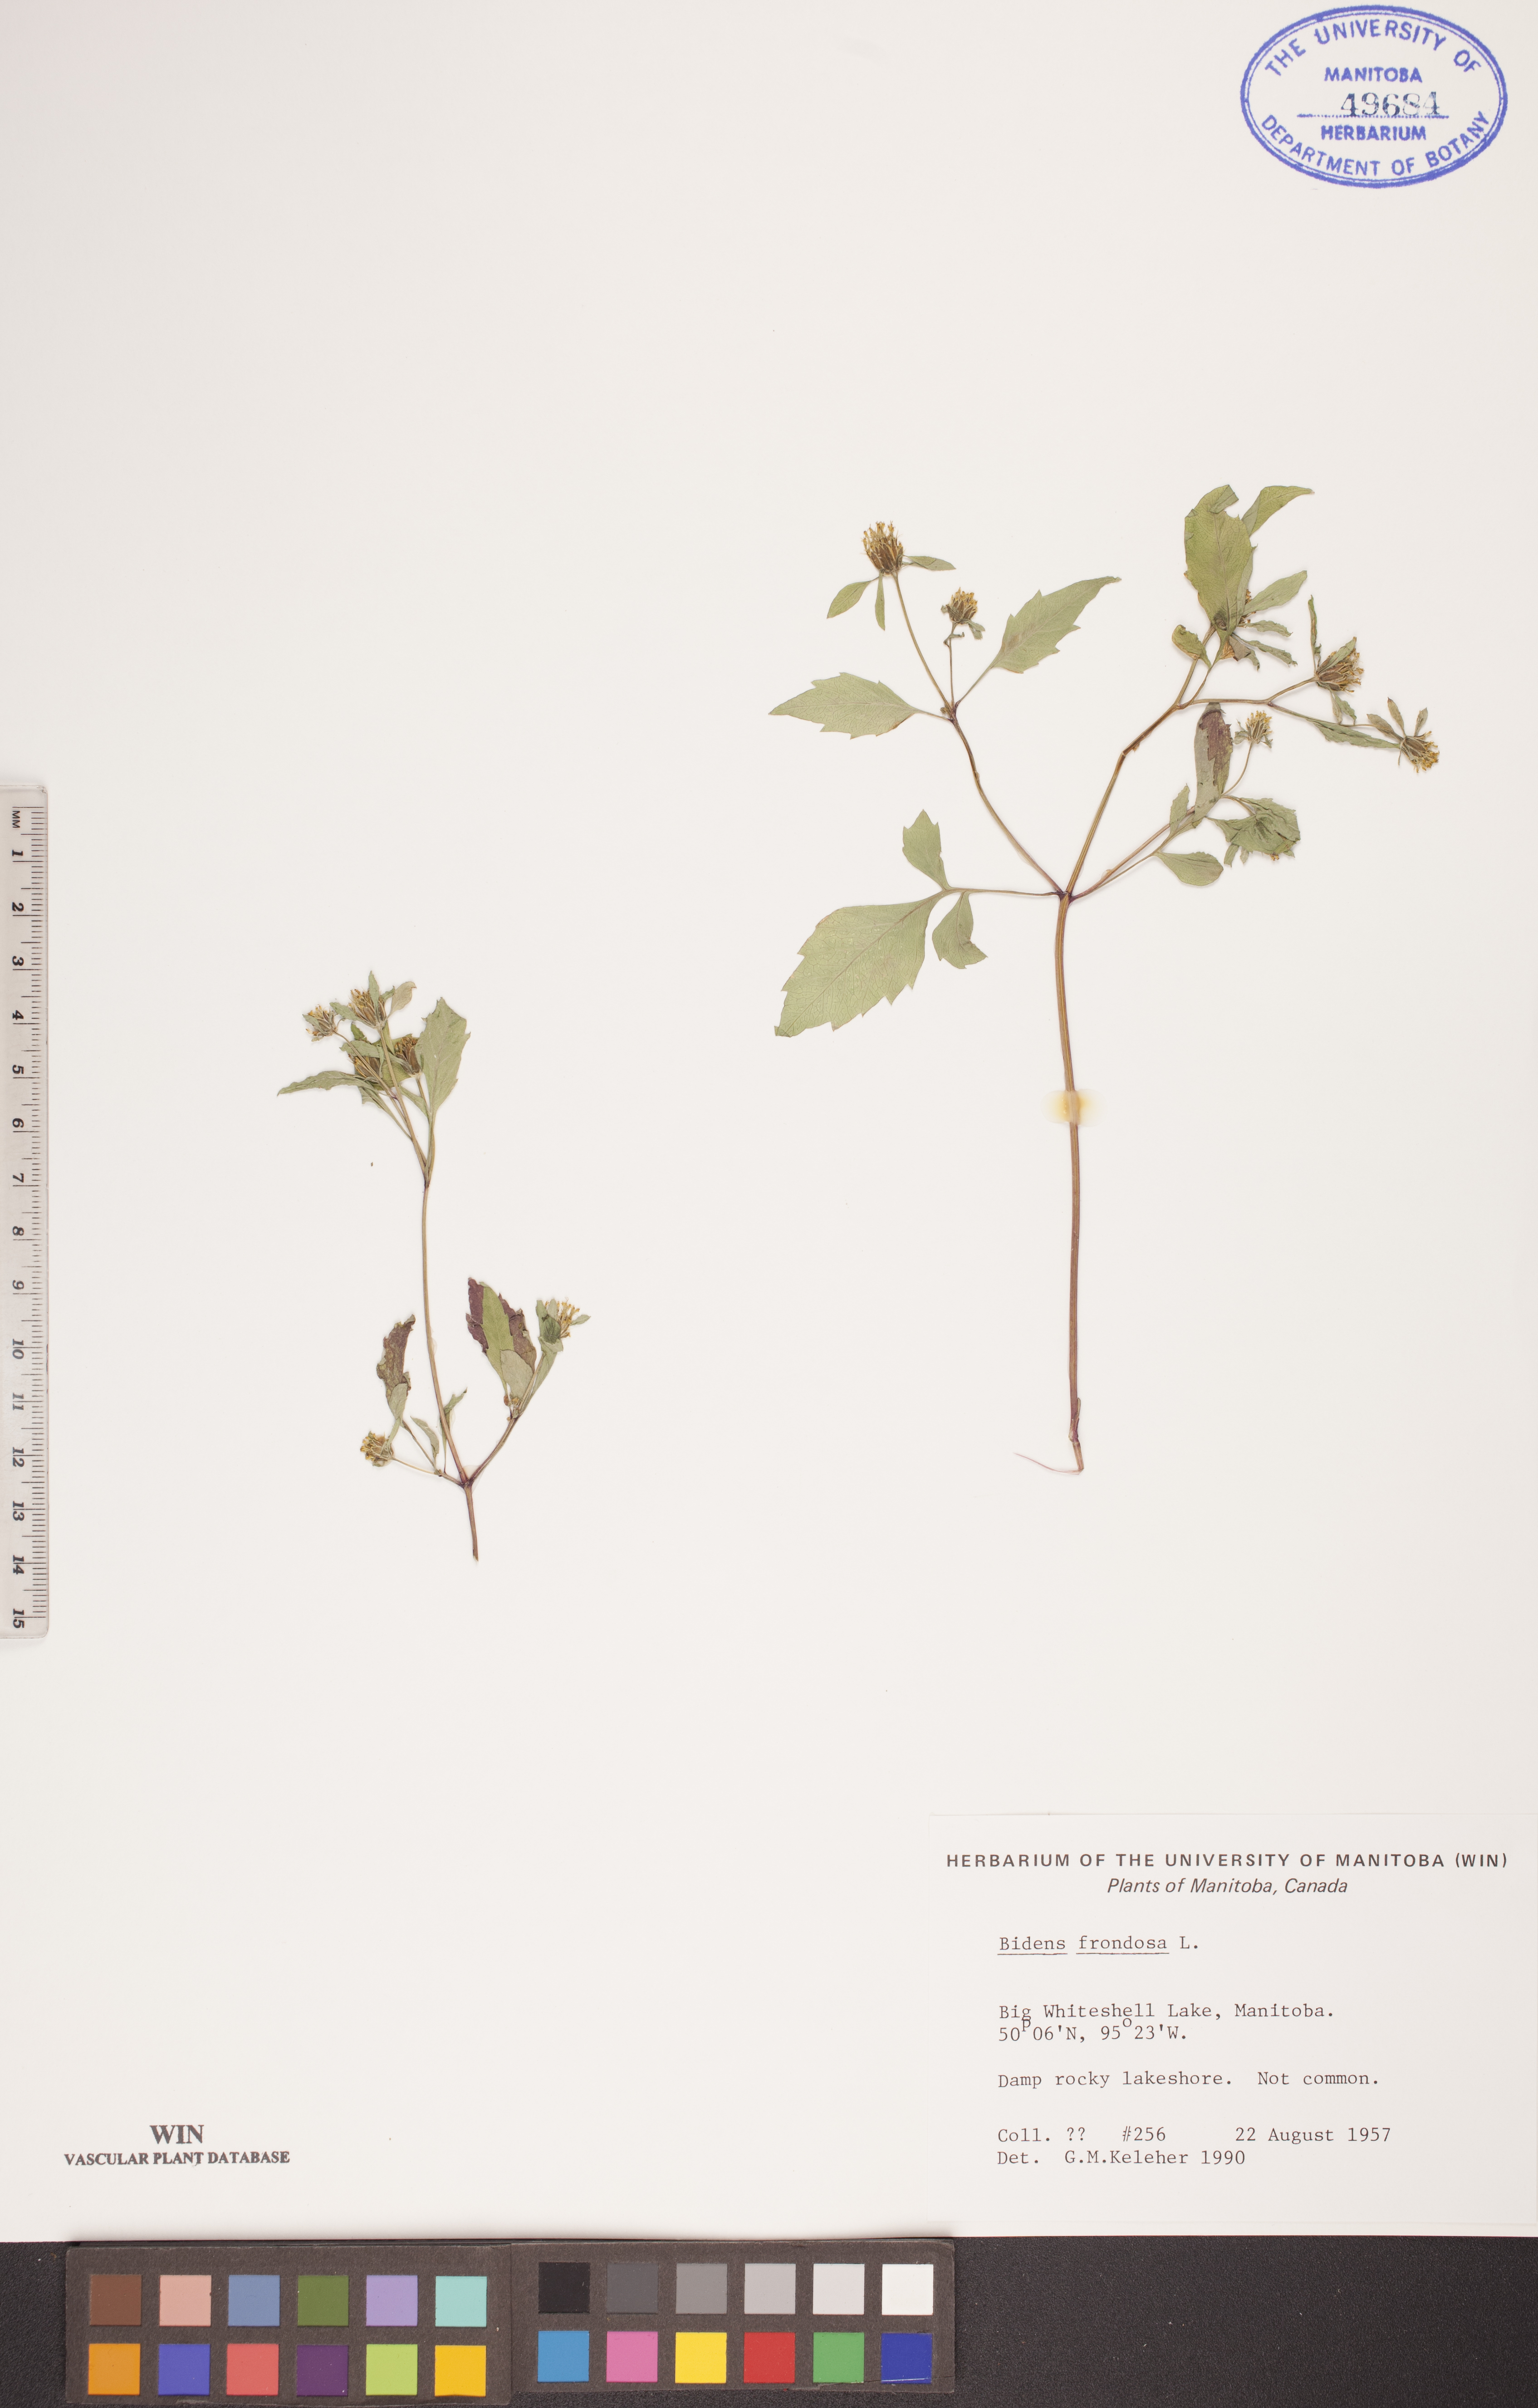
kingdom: Plantae
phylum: Tracheophyta
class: Magnoliopsida
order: Asterales
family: Asteraceae
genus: Bidens
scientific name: Bidens frondosa
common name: Beggarticks
